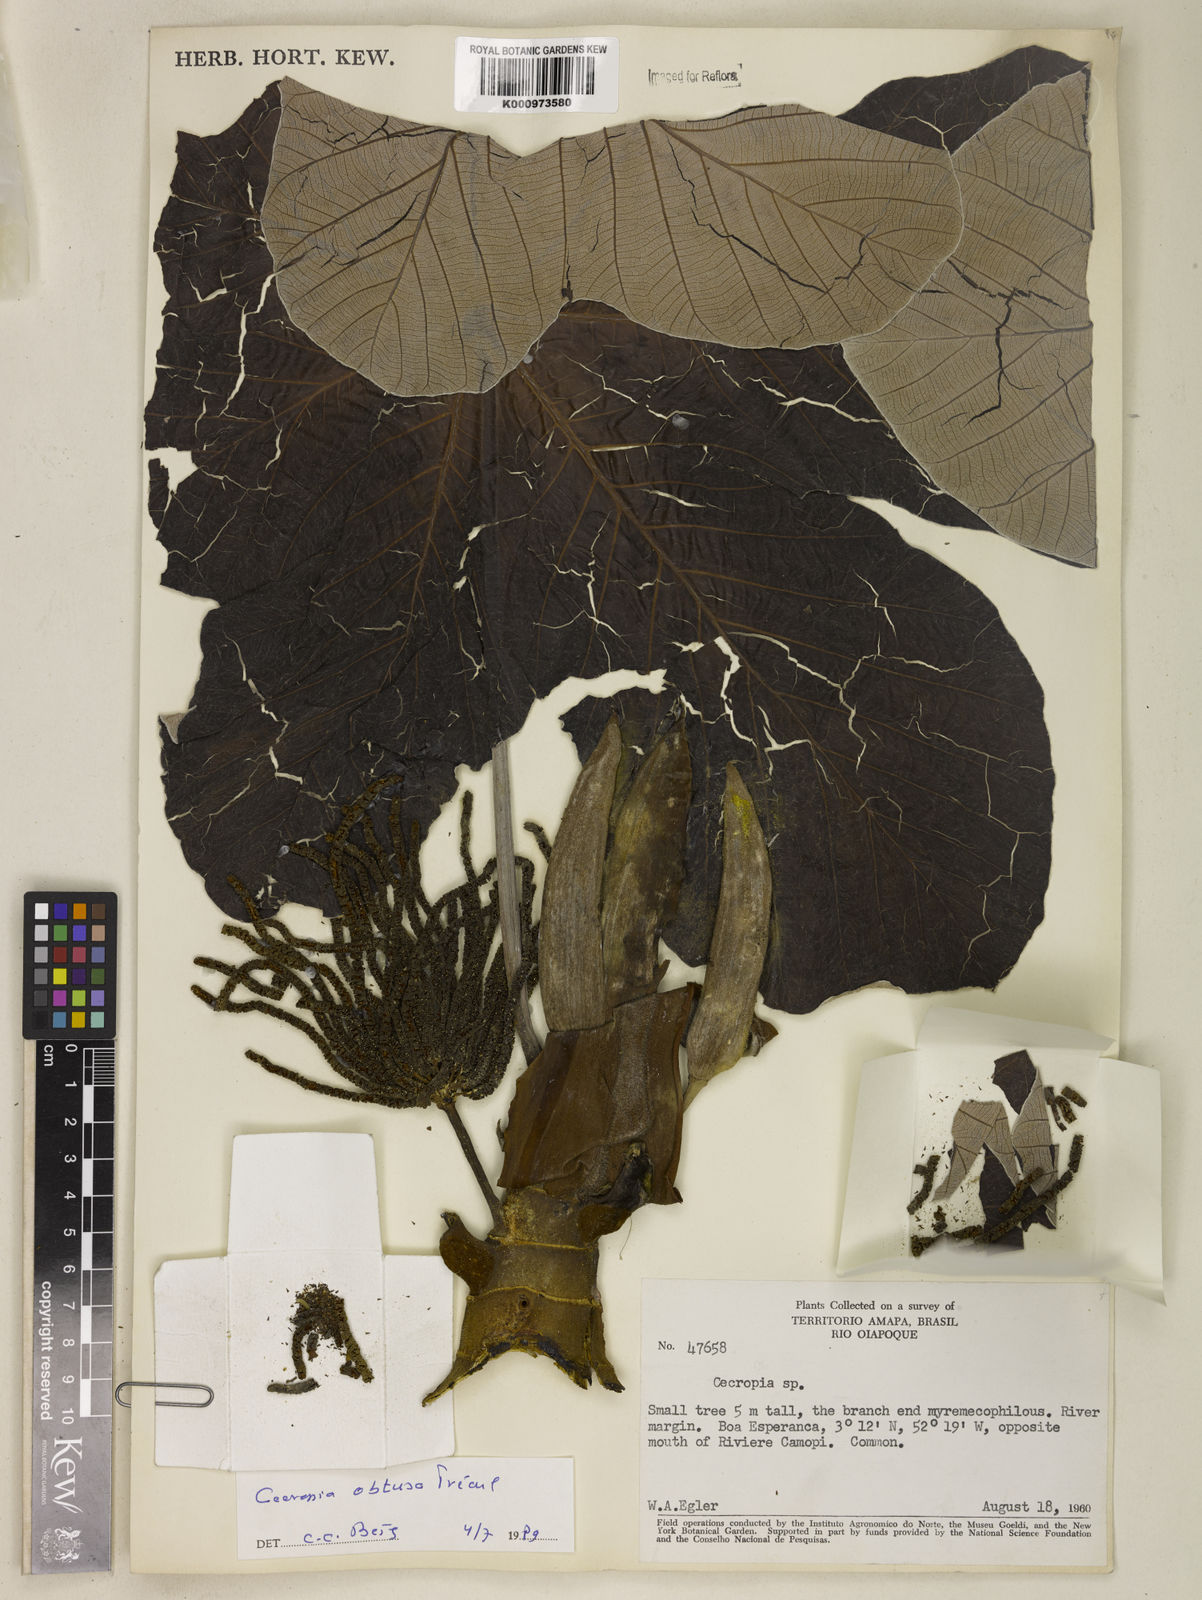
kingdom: Plantae
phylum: Tracheophyta
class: Magnoliopsida
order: Rosales
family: Urticaceae
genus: Cecropia
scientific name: Cecropia
